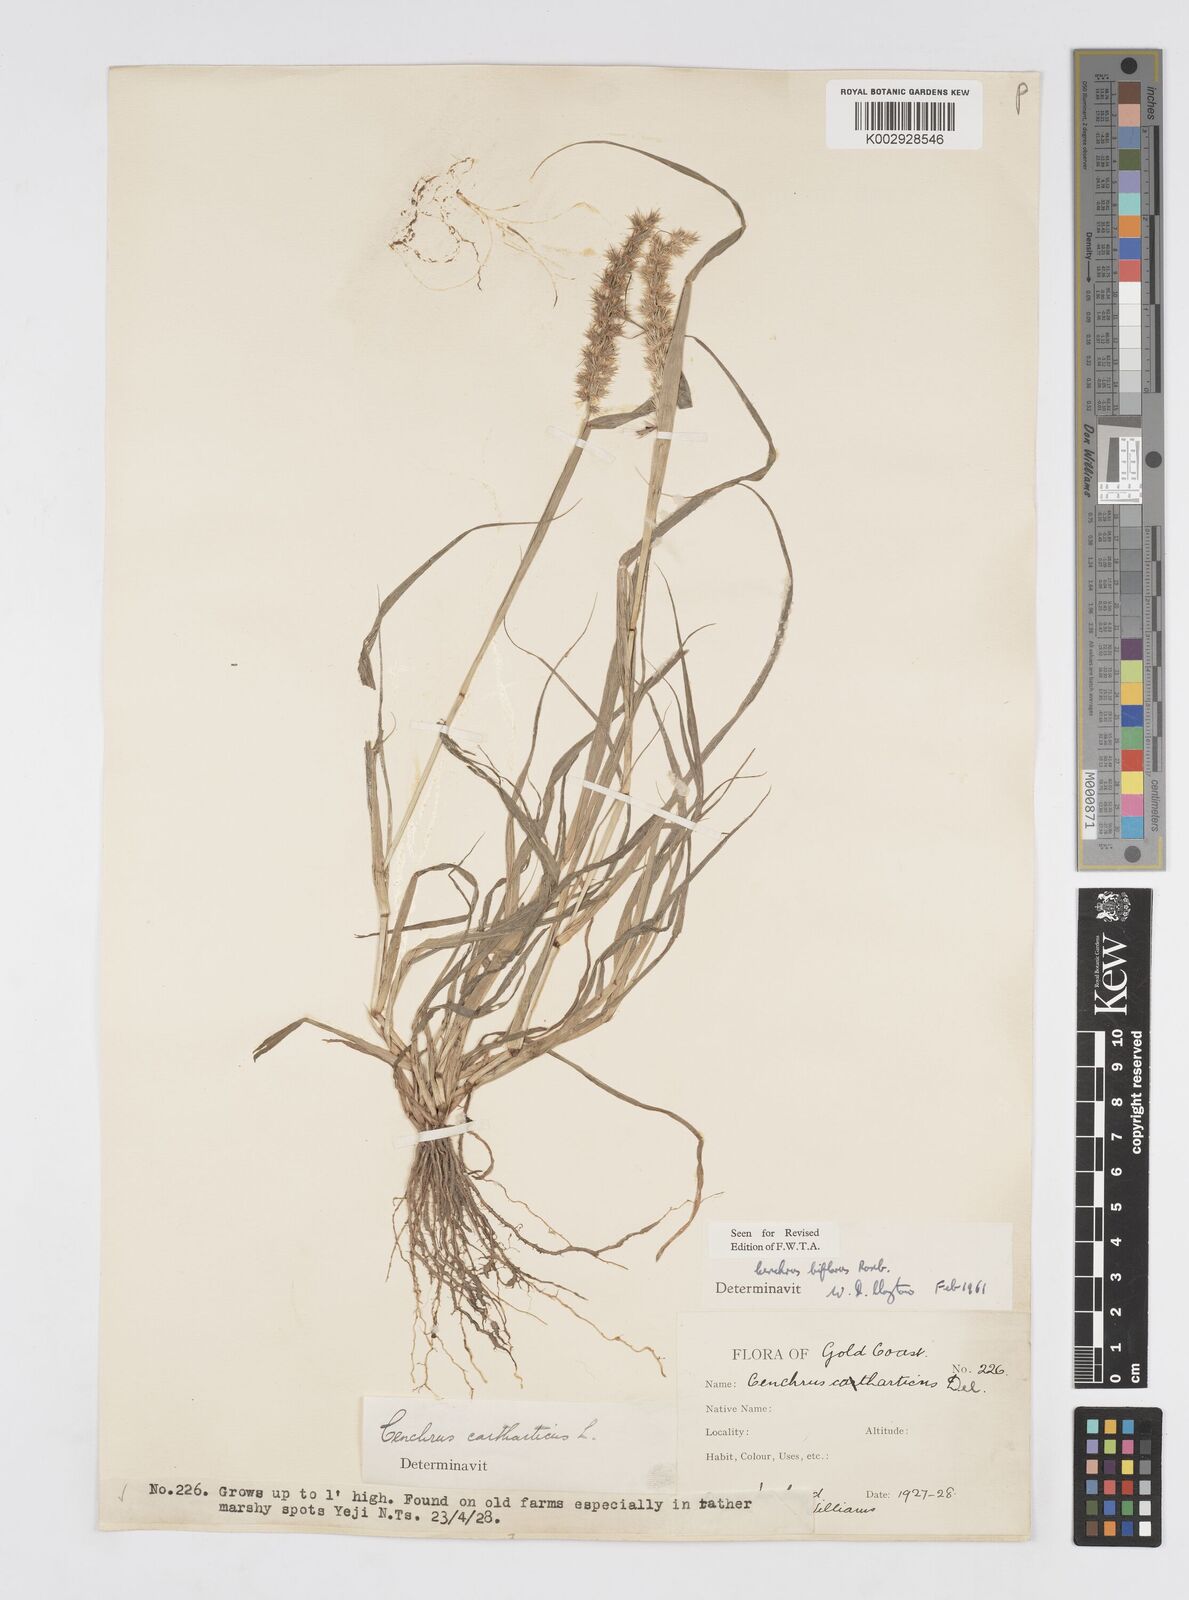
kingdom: Plantae
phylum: Tracheophyta
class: Liliopsida
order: Poales
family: Poaceae
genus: Cenchrus
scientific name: Cenchrus biflorus
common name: Indian sandbur
